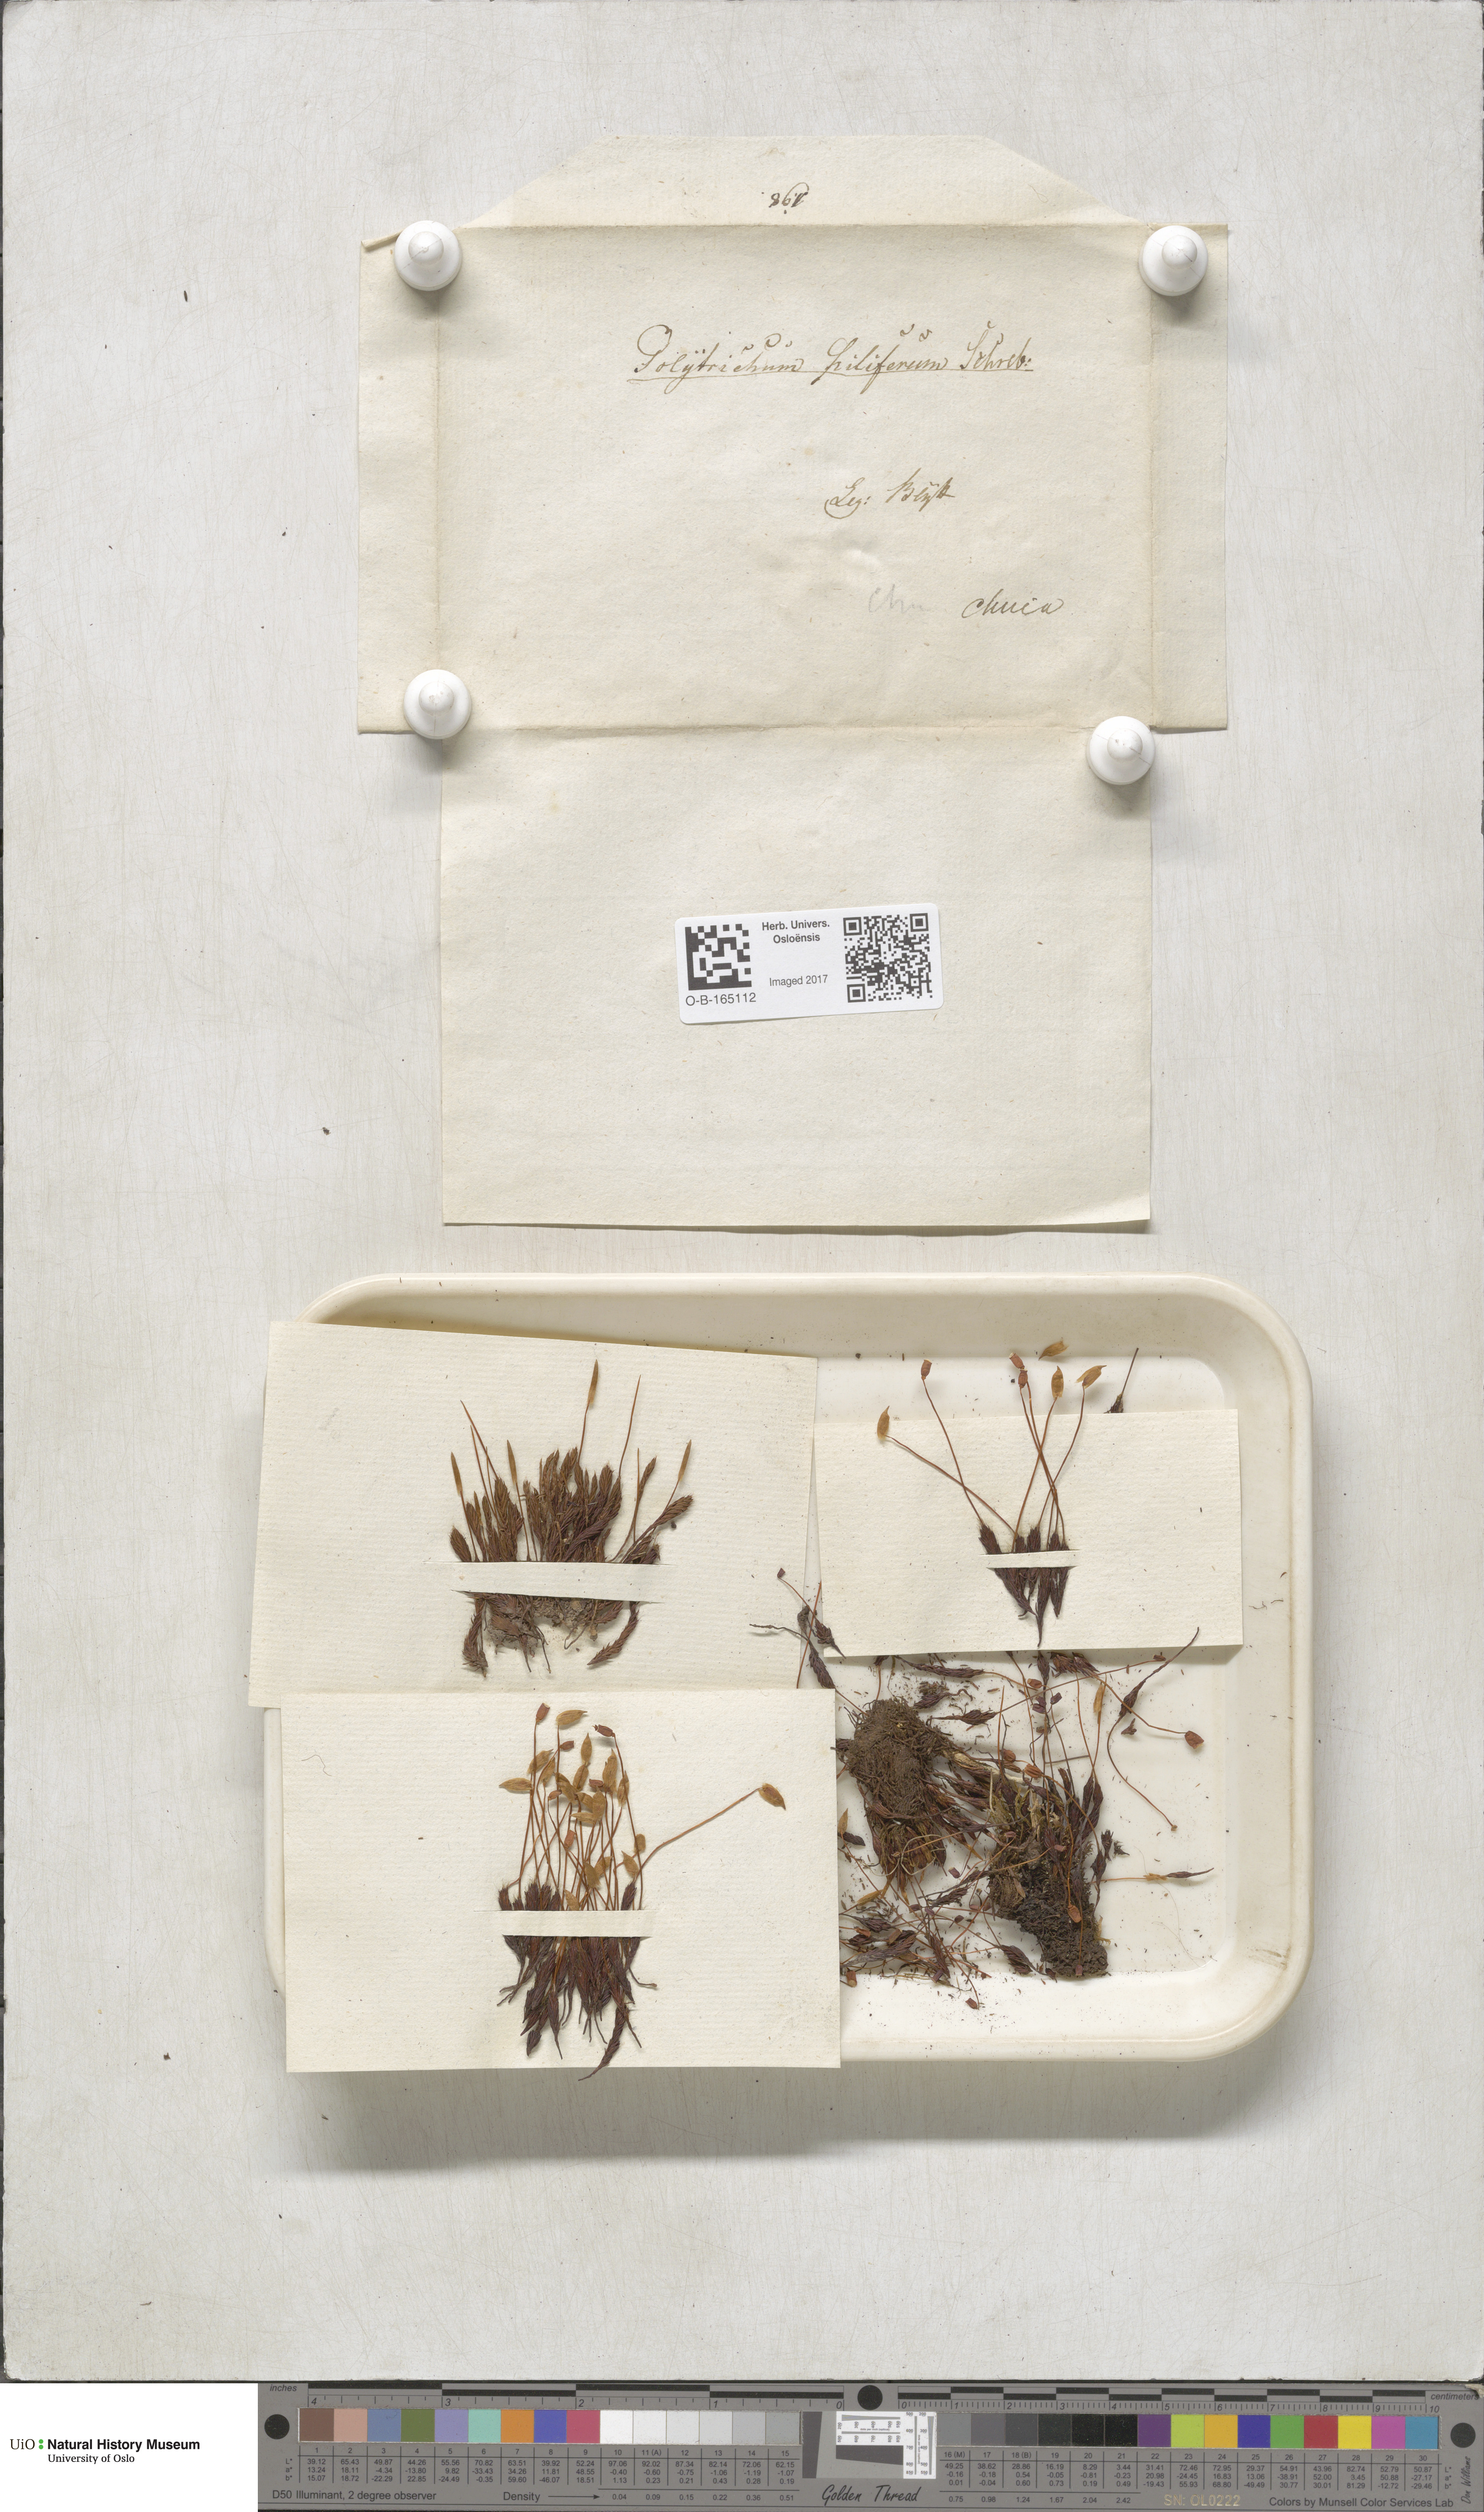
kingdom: Plantae
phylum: Bryophyta
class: Polytrichopsida
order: Polytrichales
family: Polytrichaceae
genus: Polytrichum
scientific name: Polytrichum piliferum
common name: Bristly haircap
